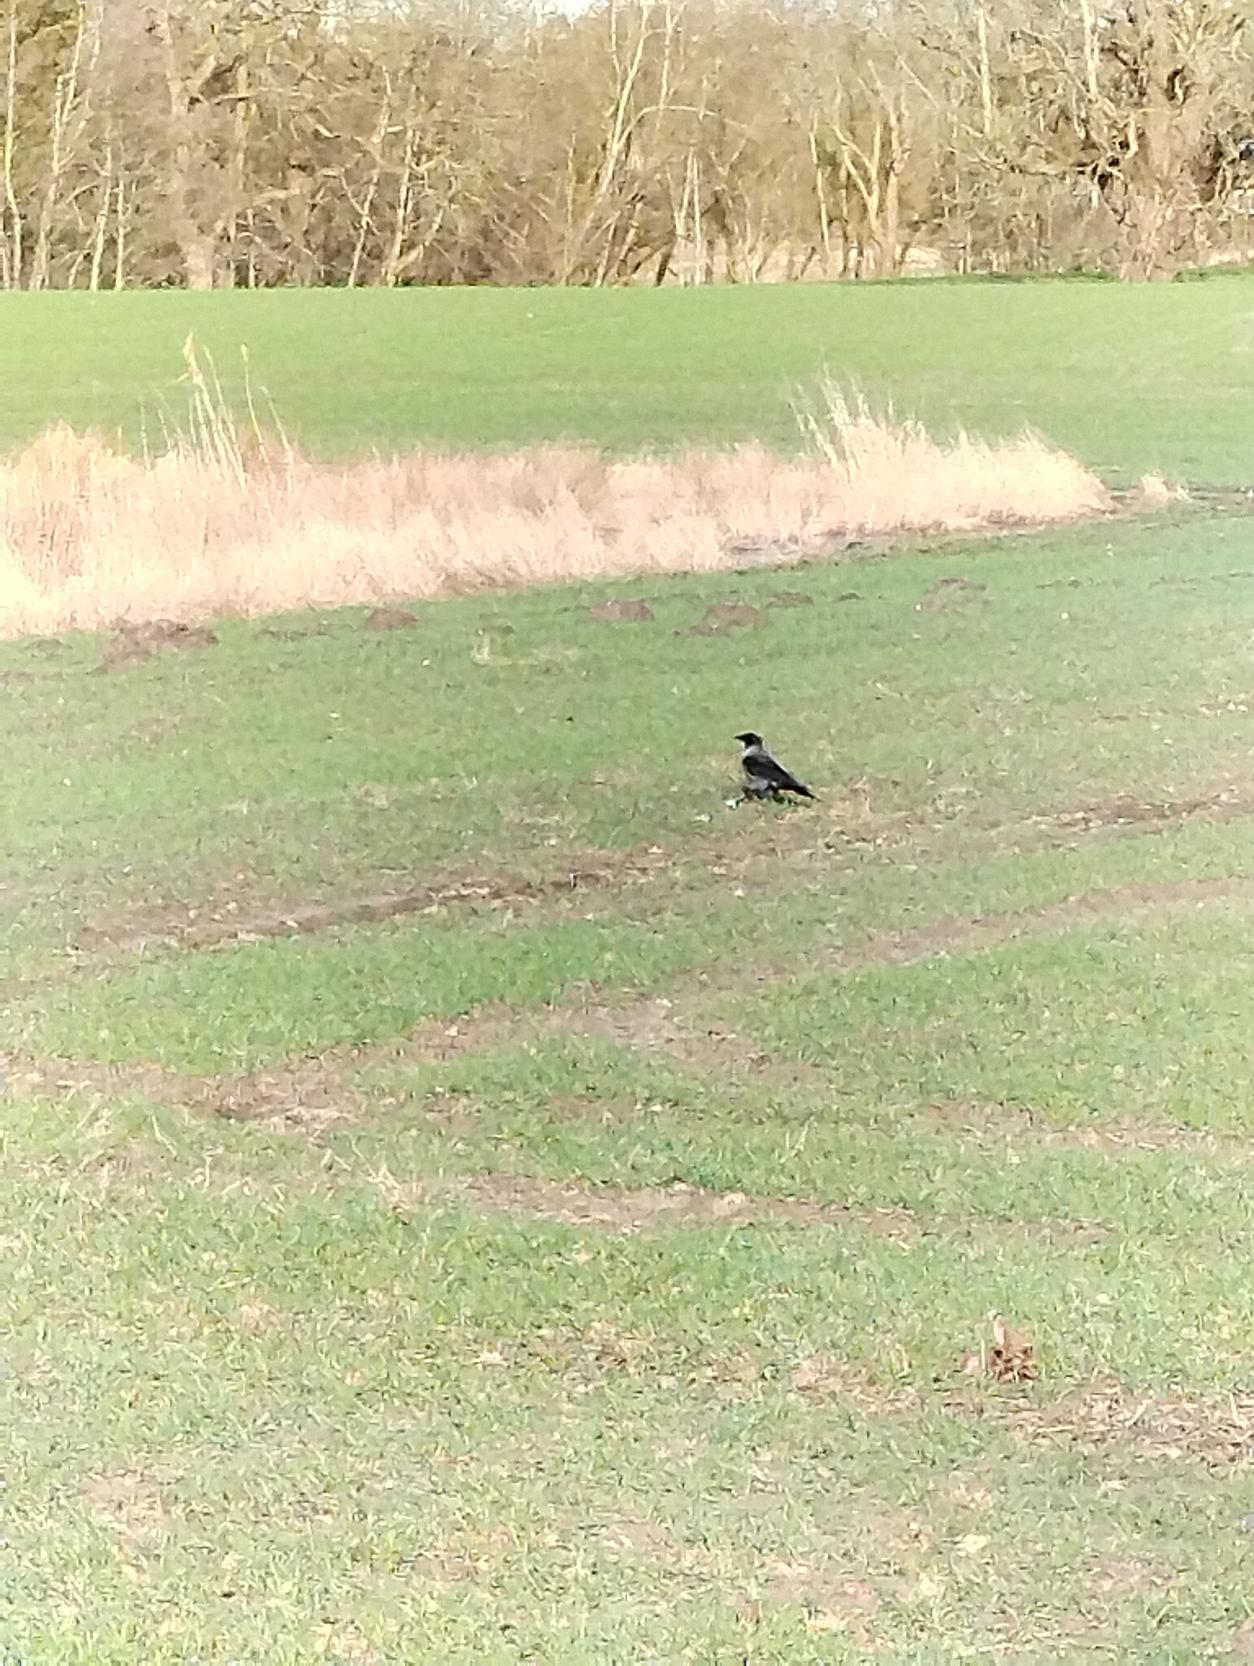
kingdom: Animalia
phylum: Chordata
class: Aves
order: Passeriformes
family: Corvidae
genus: Corvus
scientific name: Corvus cornix
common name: Gråkrage
